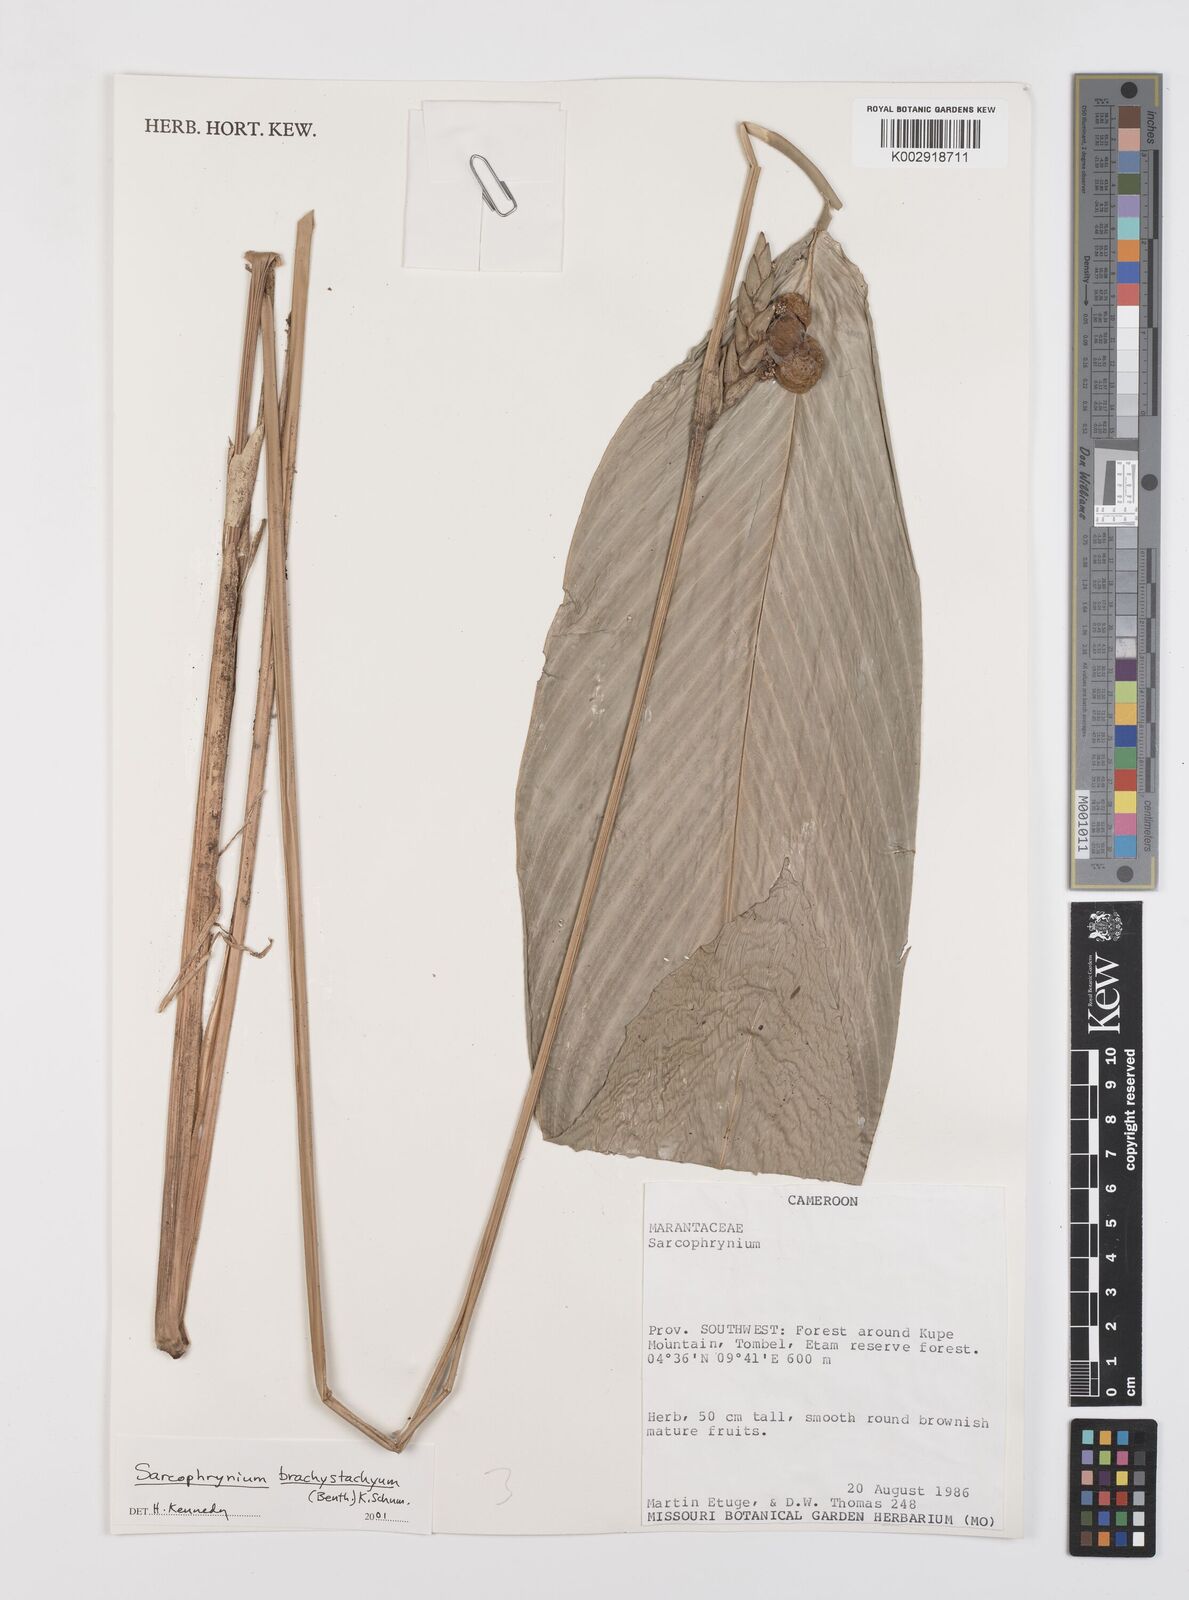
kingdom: Plantae
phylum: Tracheophyta
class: Liliopsida
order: Zingiberales
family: Marantaceae
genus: Sarcophrynium
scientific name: Sarcophrynium brachystachyum
